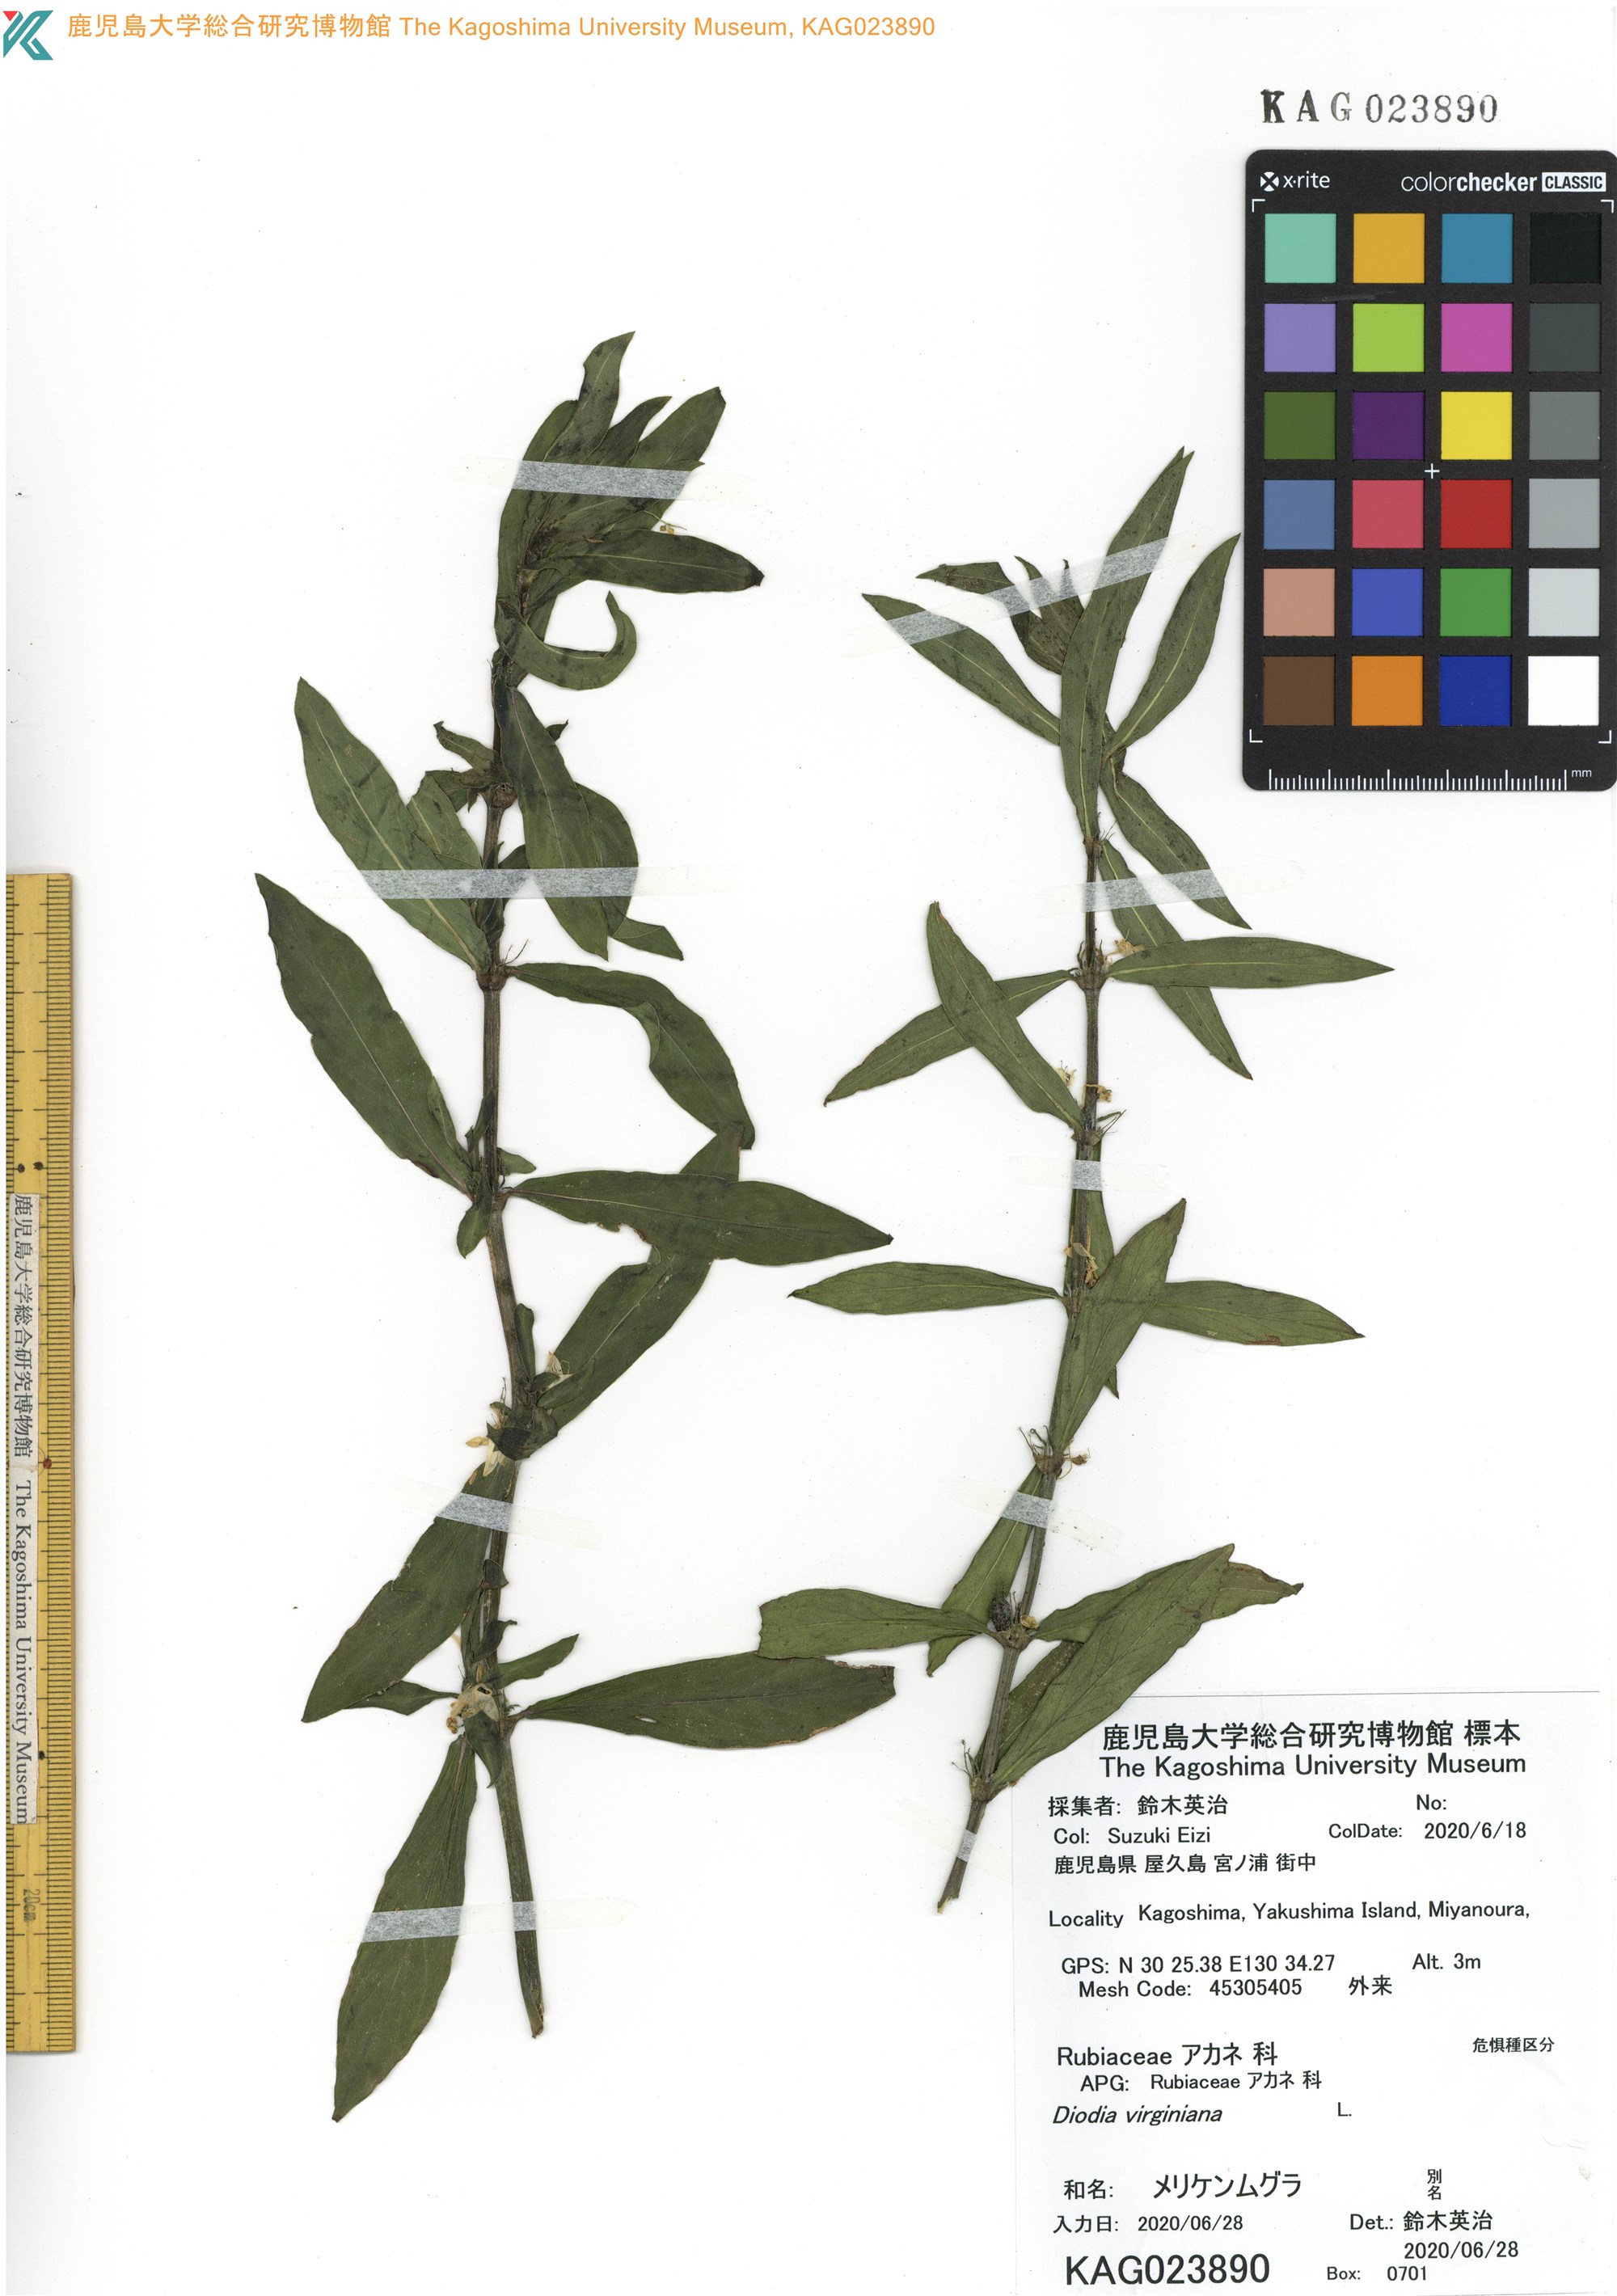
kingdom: Plantae
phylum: Tracheophyta
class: Magnoliopsida
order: Gentianales
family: Rubiaceae
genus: Diodia
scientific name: Diodia virginiana
